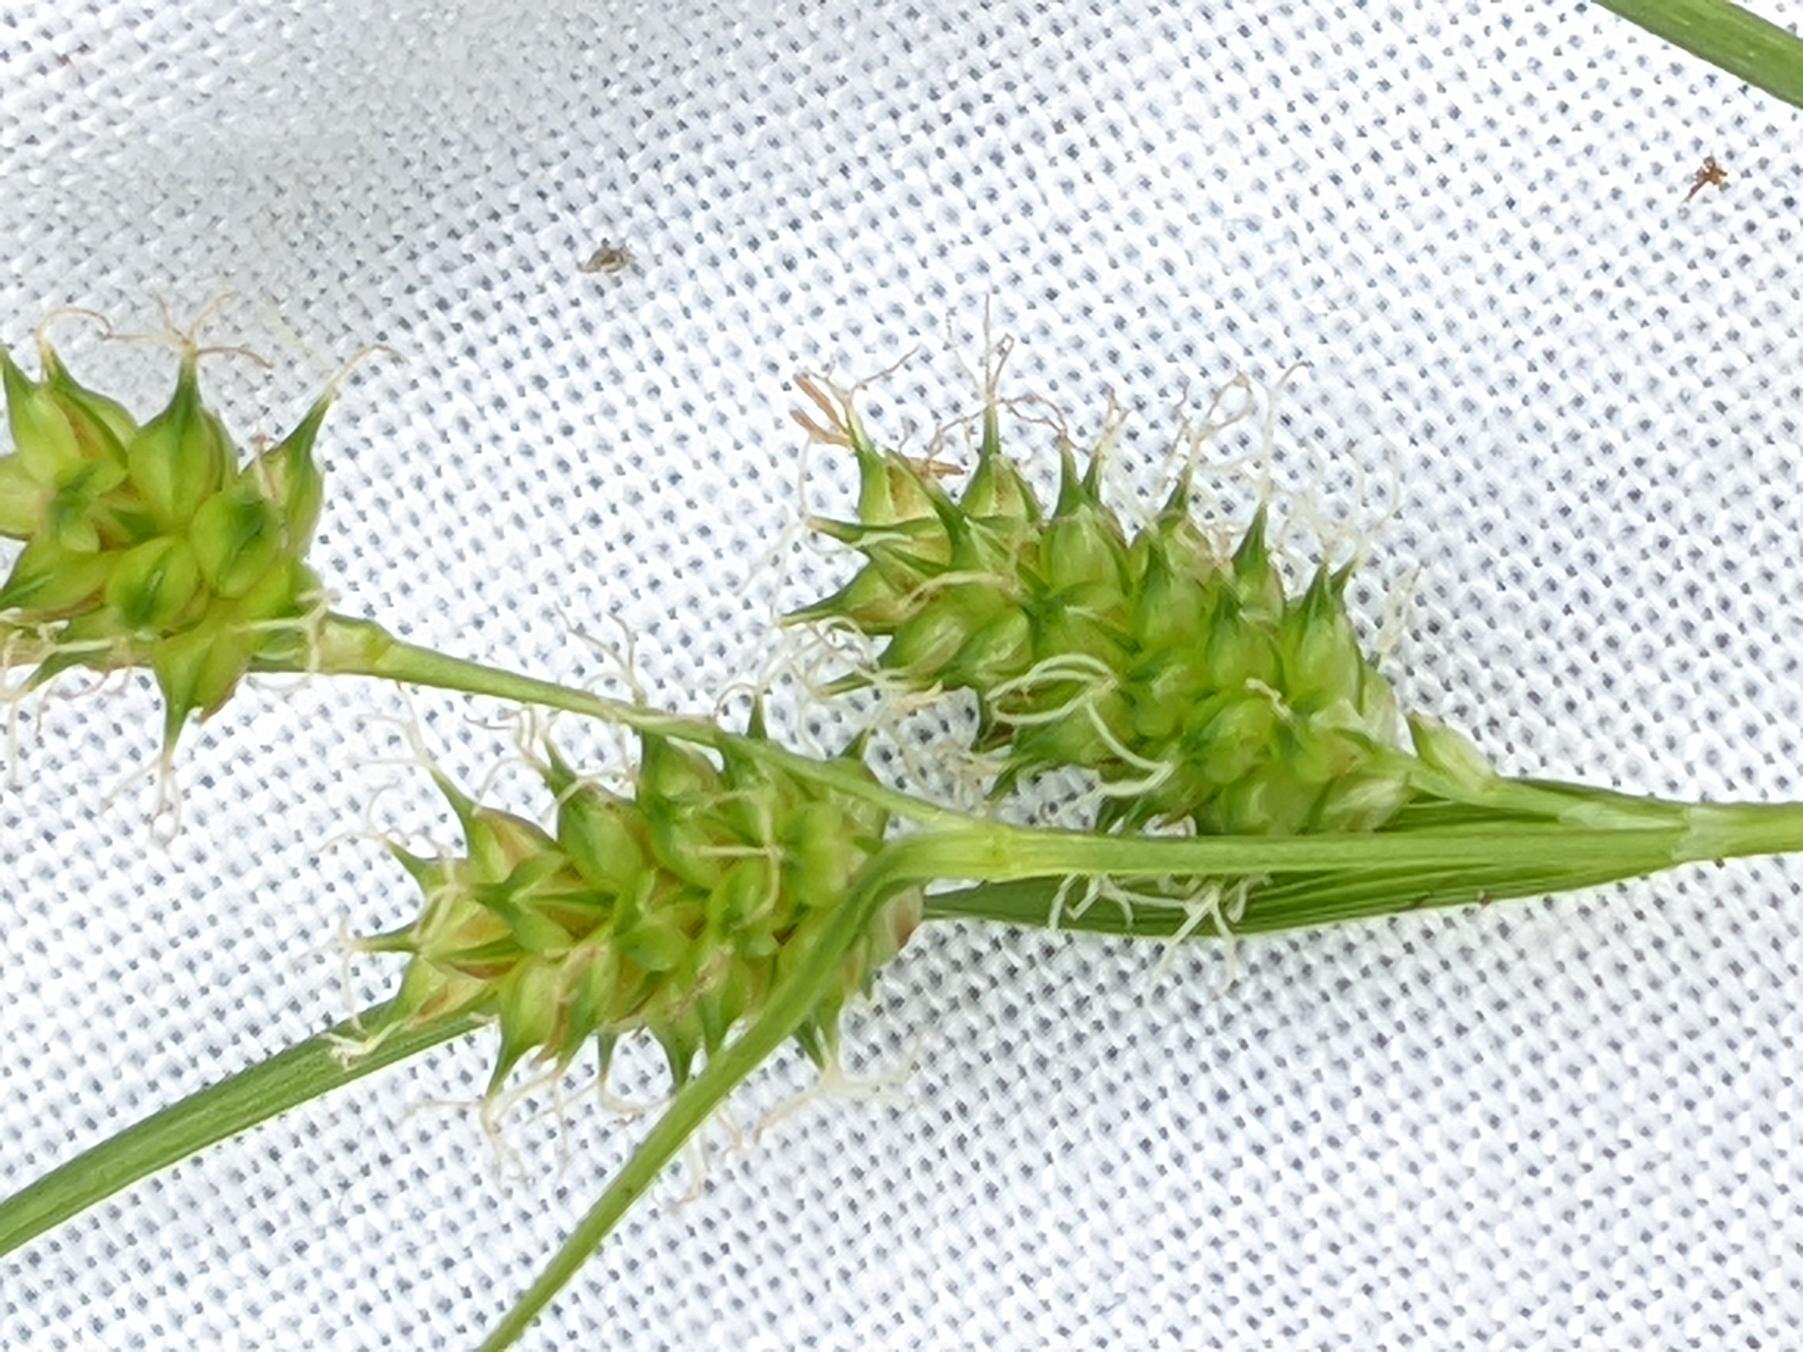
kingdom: Plantae
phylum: Tracheophyta
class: Liliopsida
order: Poales
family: Cyperaceae
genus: Carex
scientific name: Carex demissa
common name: Grøn star
